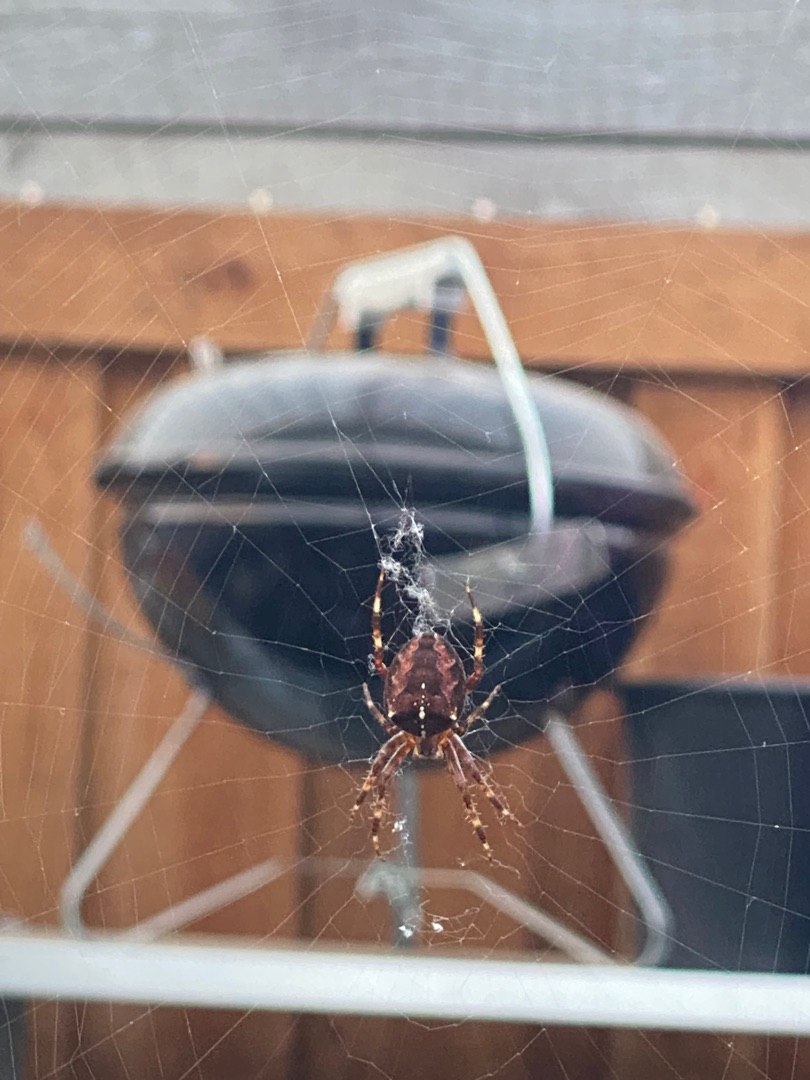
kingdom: Animalia
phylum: Arthropoda
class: Arachnida
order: Araneae
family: Araneidae
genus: Araneus
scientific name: Araneus diadematus
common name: Korsedderkop
